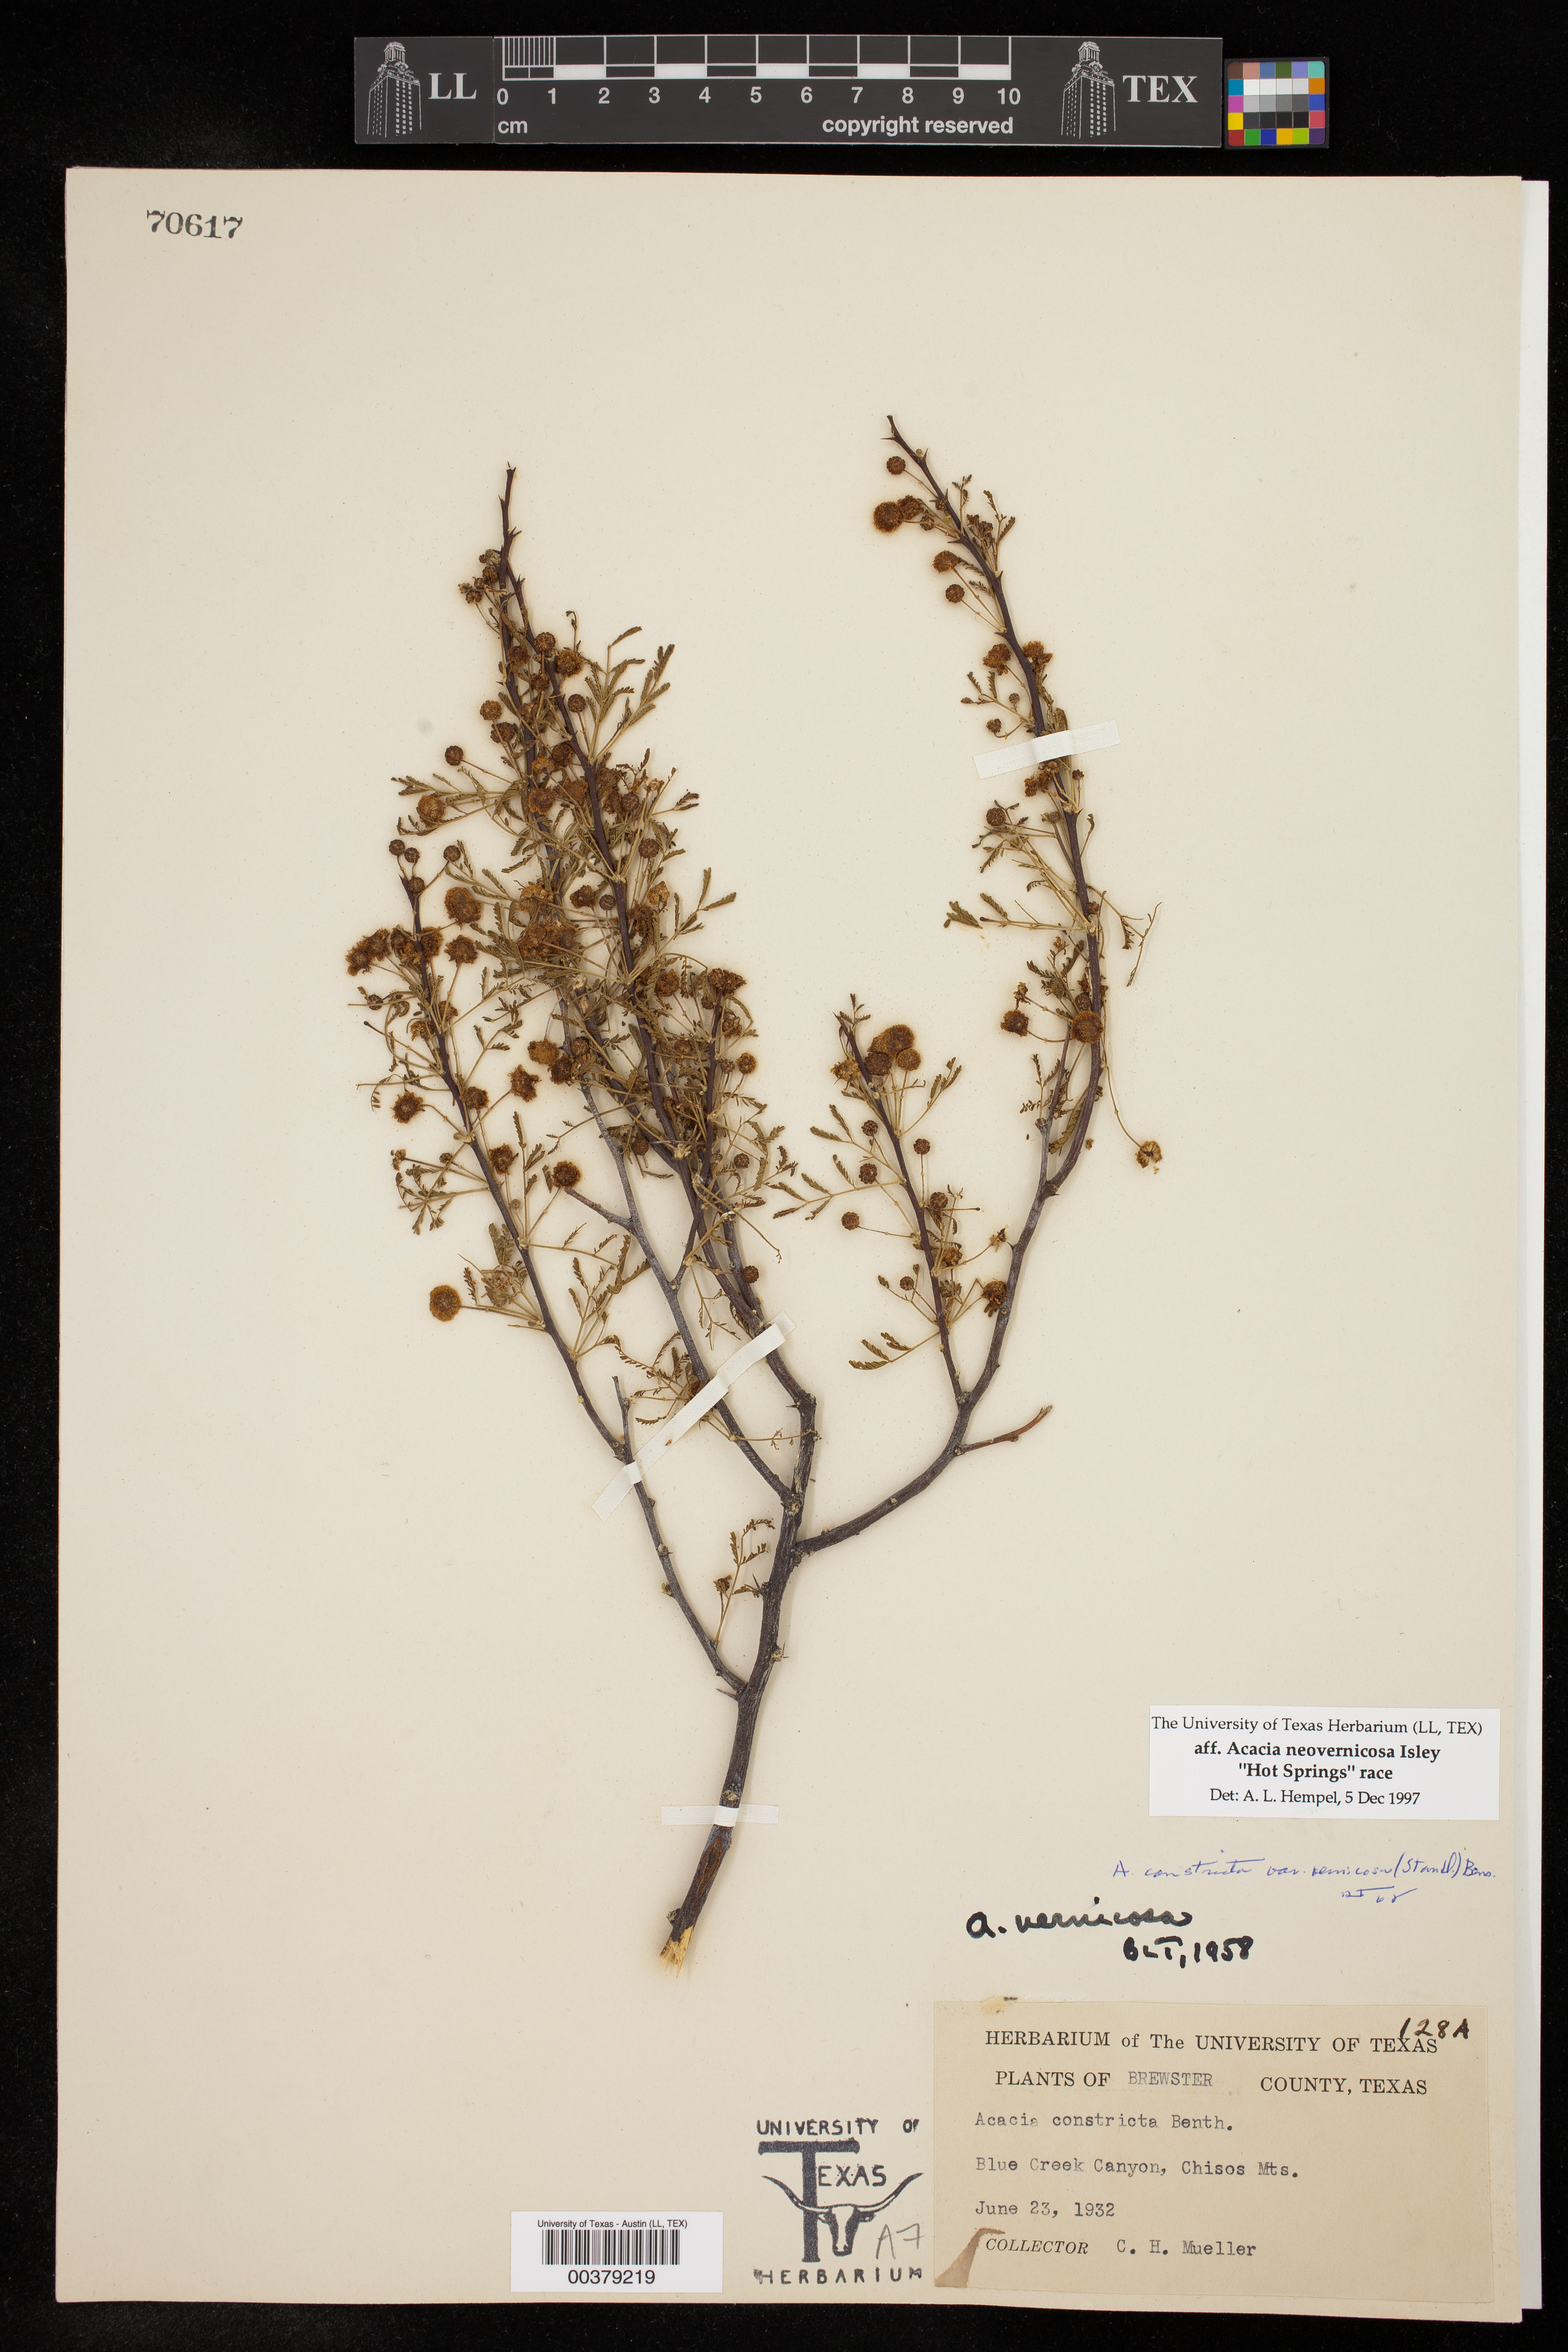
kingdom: Plantae
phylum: Tracheophyta
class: Magnoliopsida
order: Fabales
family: Fabaceae
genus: Vachellia
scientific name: Vachellia vernicosa
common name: Viscid acacia
